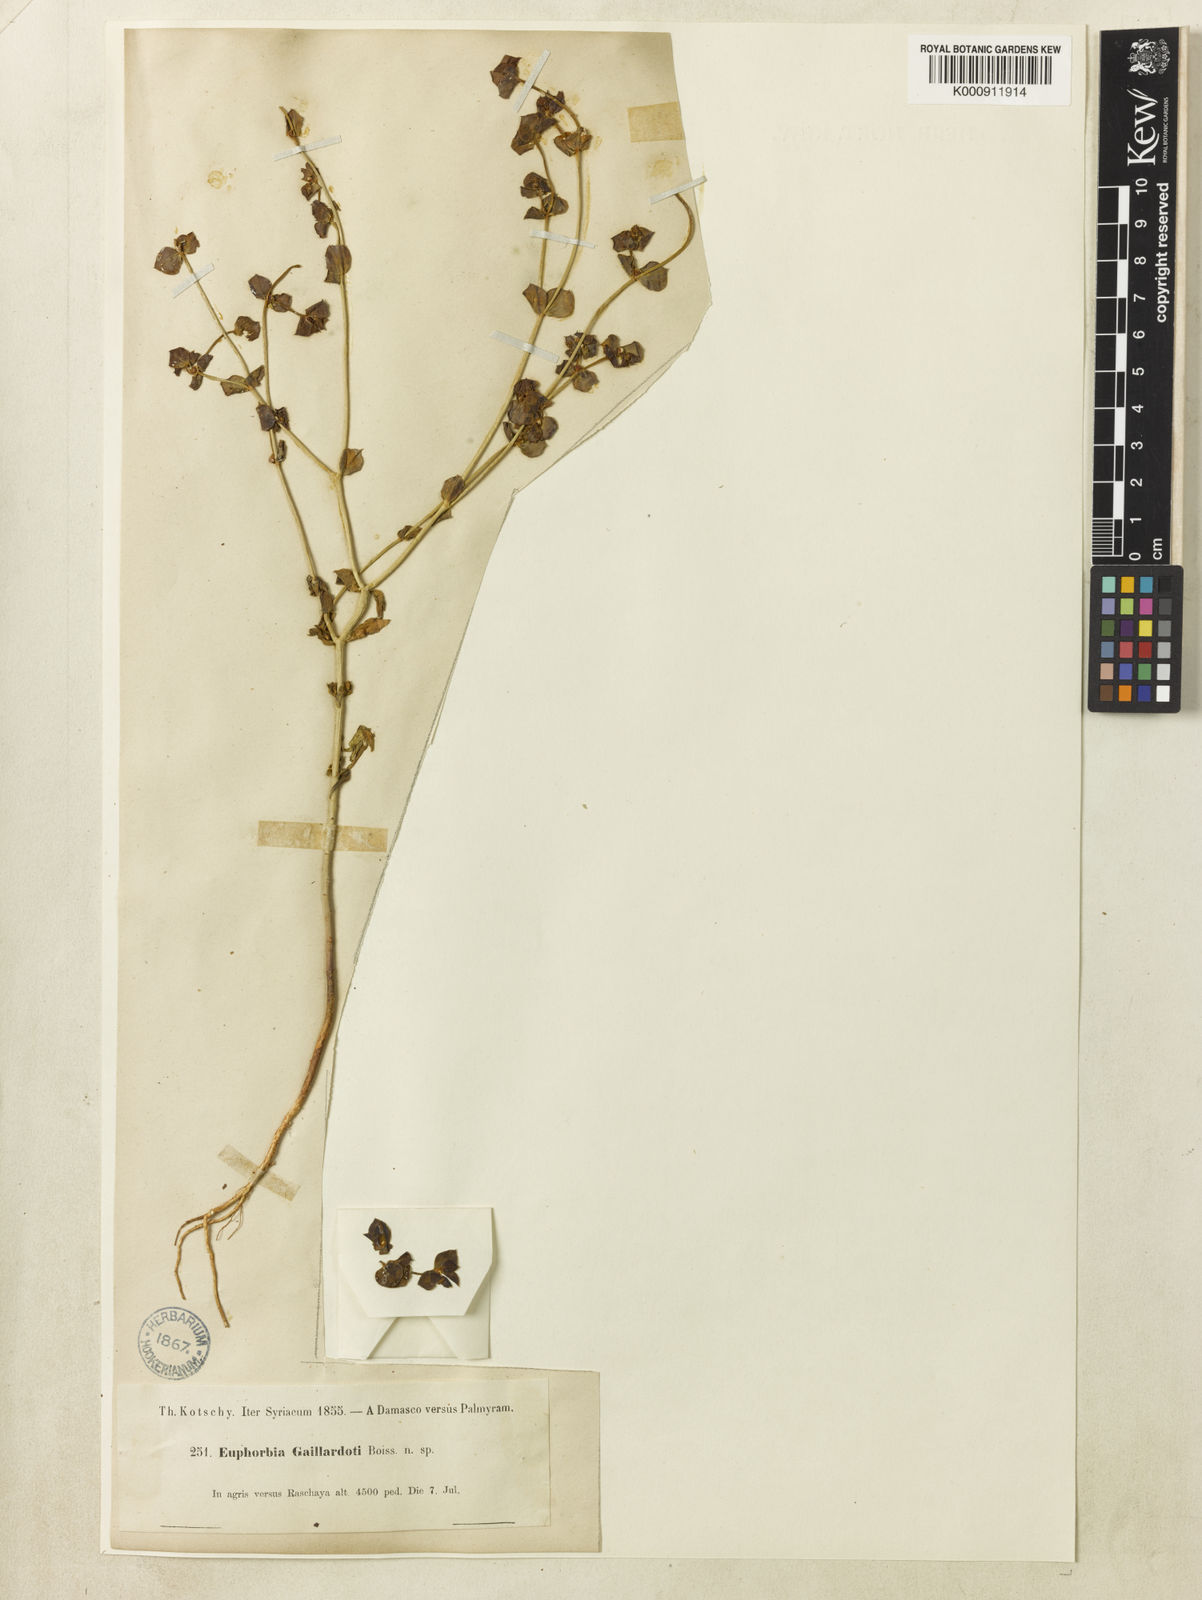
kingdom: Plantae
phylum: Tracheophyta
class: Magnoliopsida
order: Malpighiales
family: Euphorbiaceae
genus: Euphorbia
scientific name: Euphorbia gaillardotii
